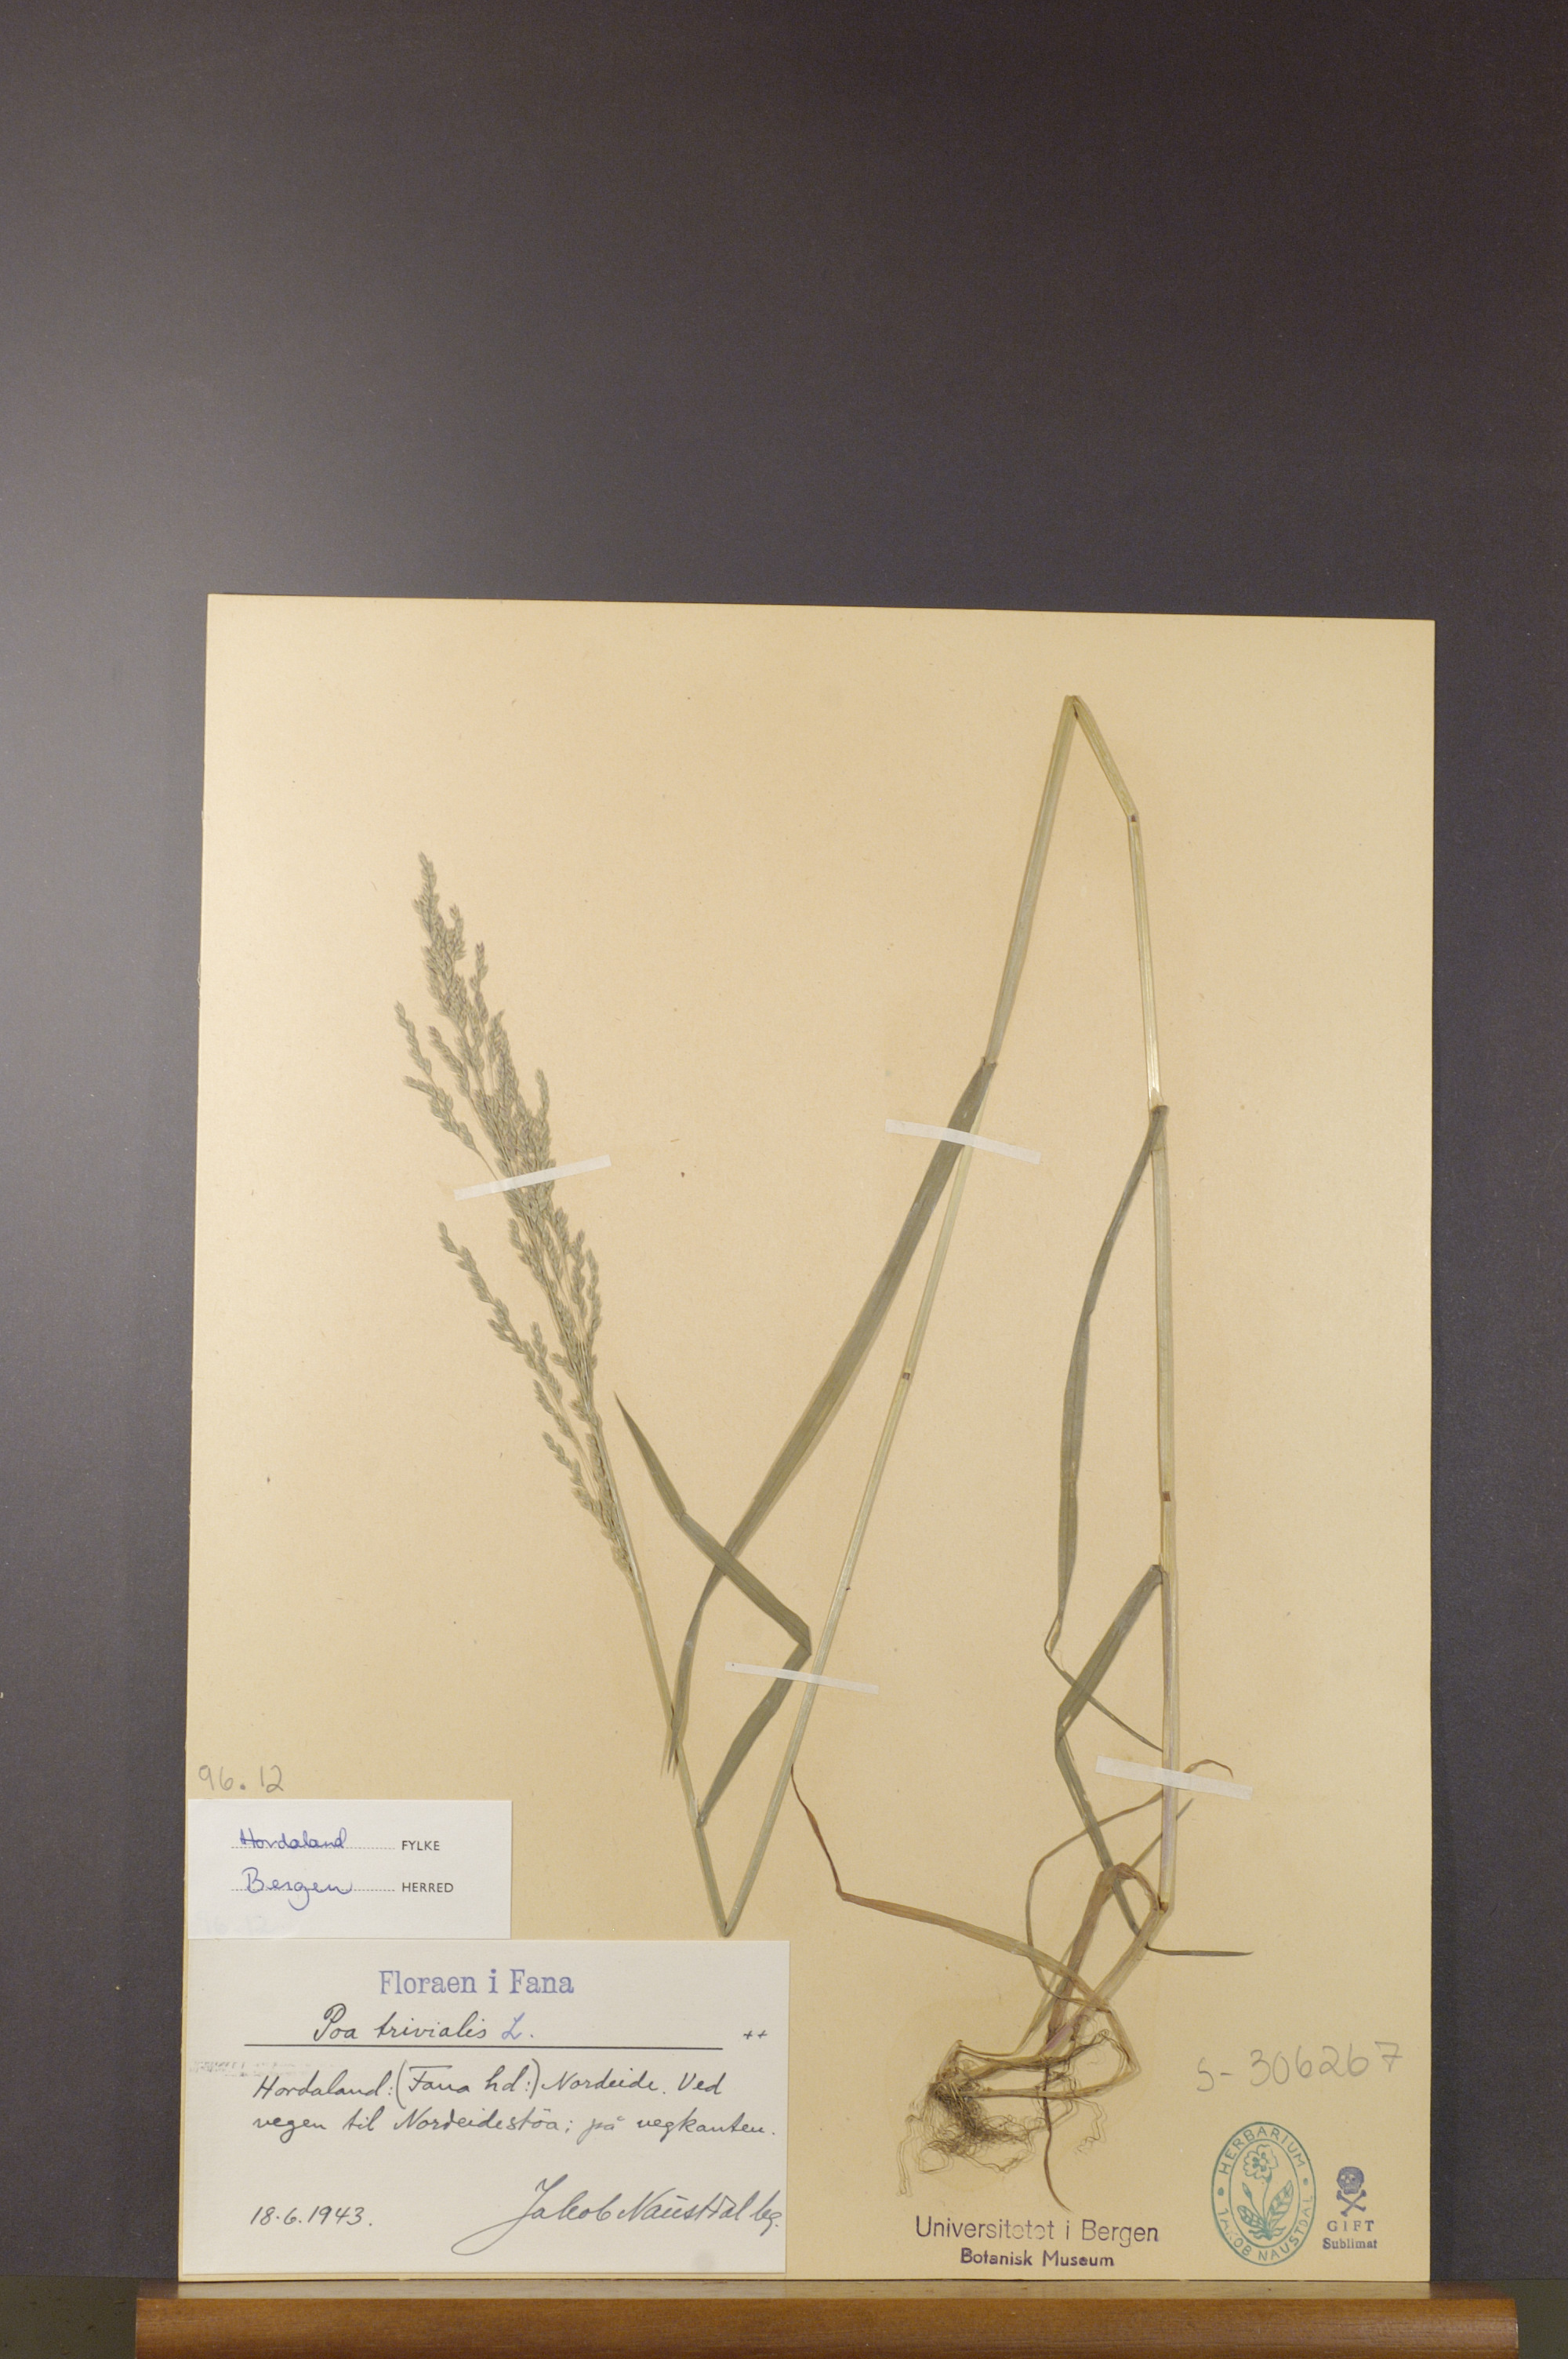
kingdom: Plantae
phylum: Tracheophyta
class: Liliopsida
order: Poales
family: Poaceae
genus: Poa
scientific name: Poa trivialis
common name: Rough bluegrass
